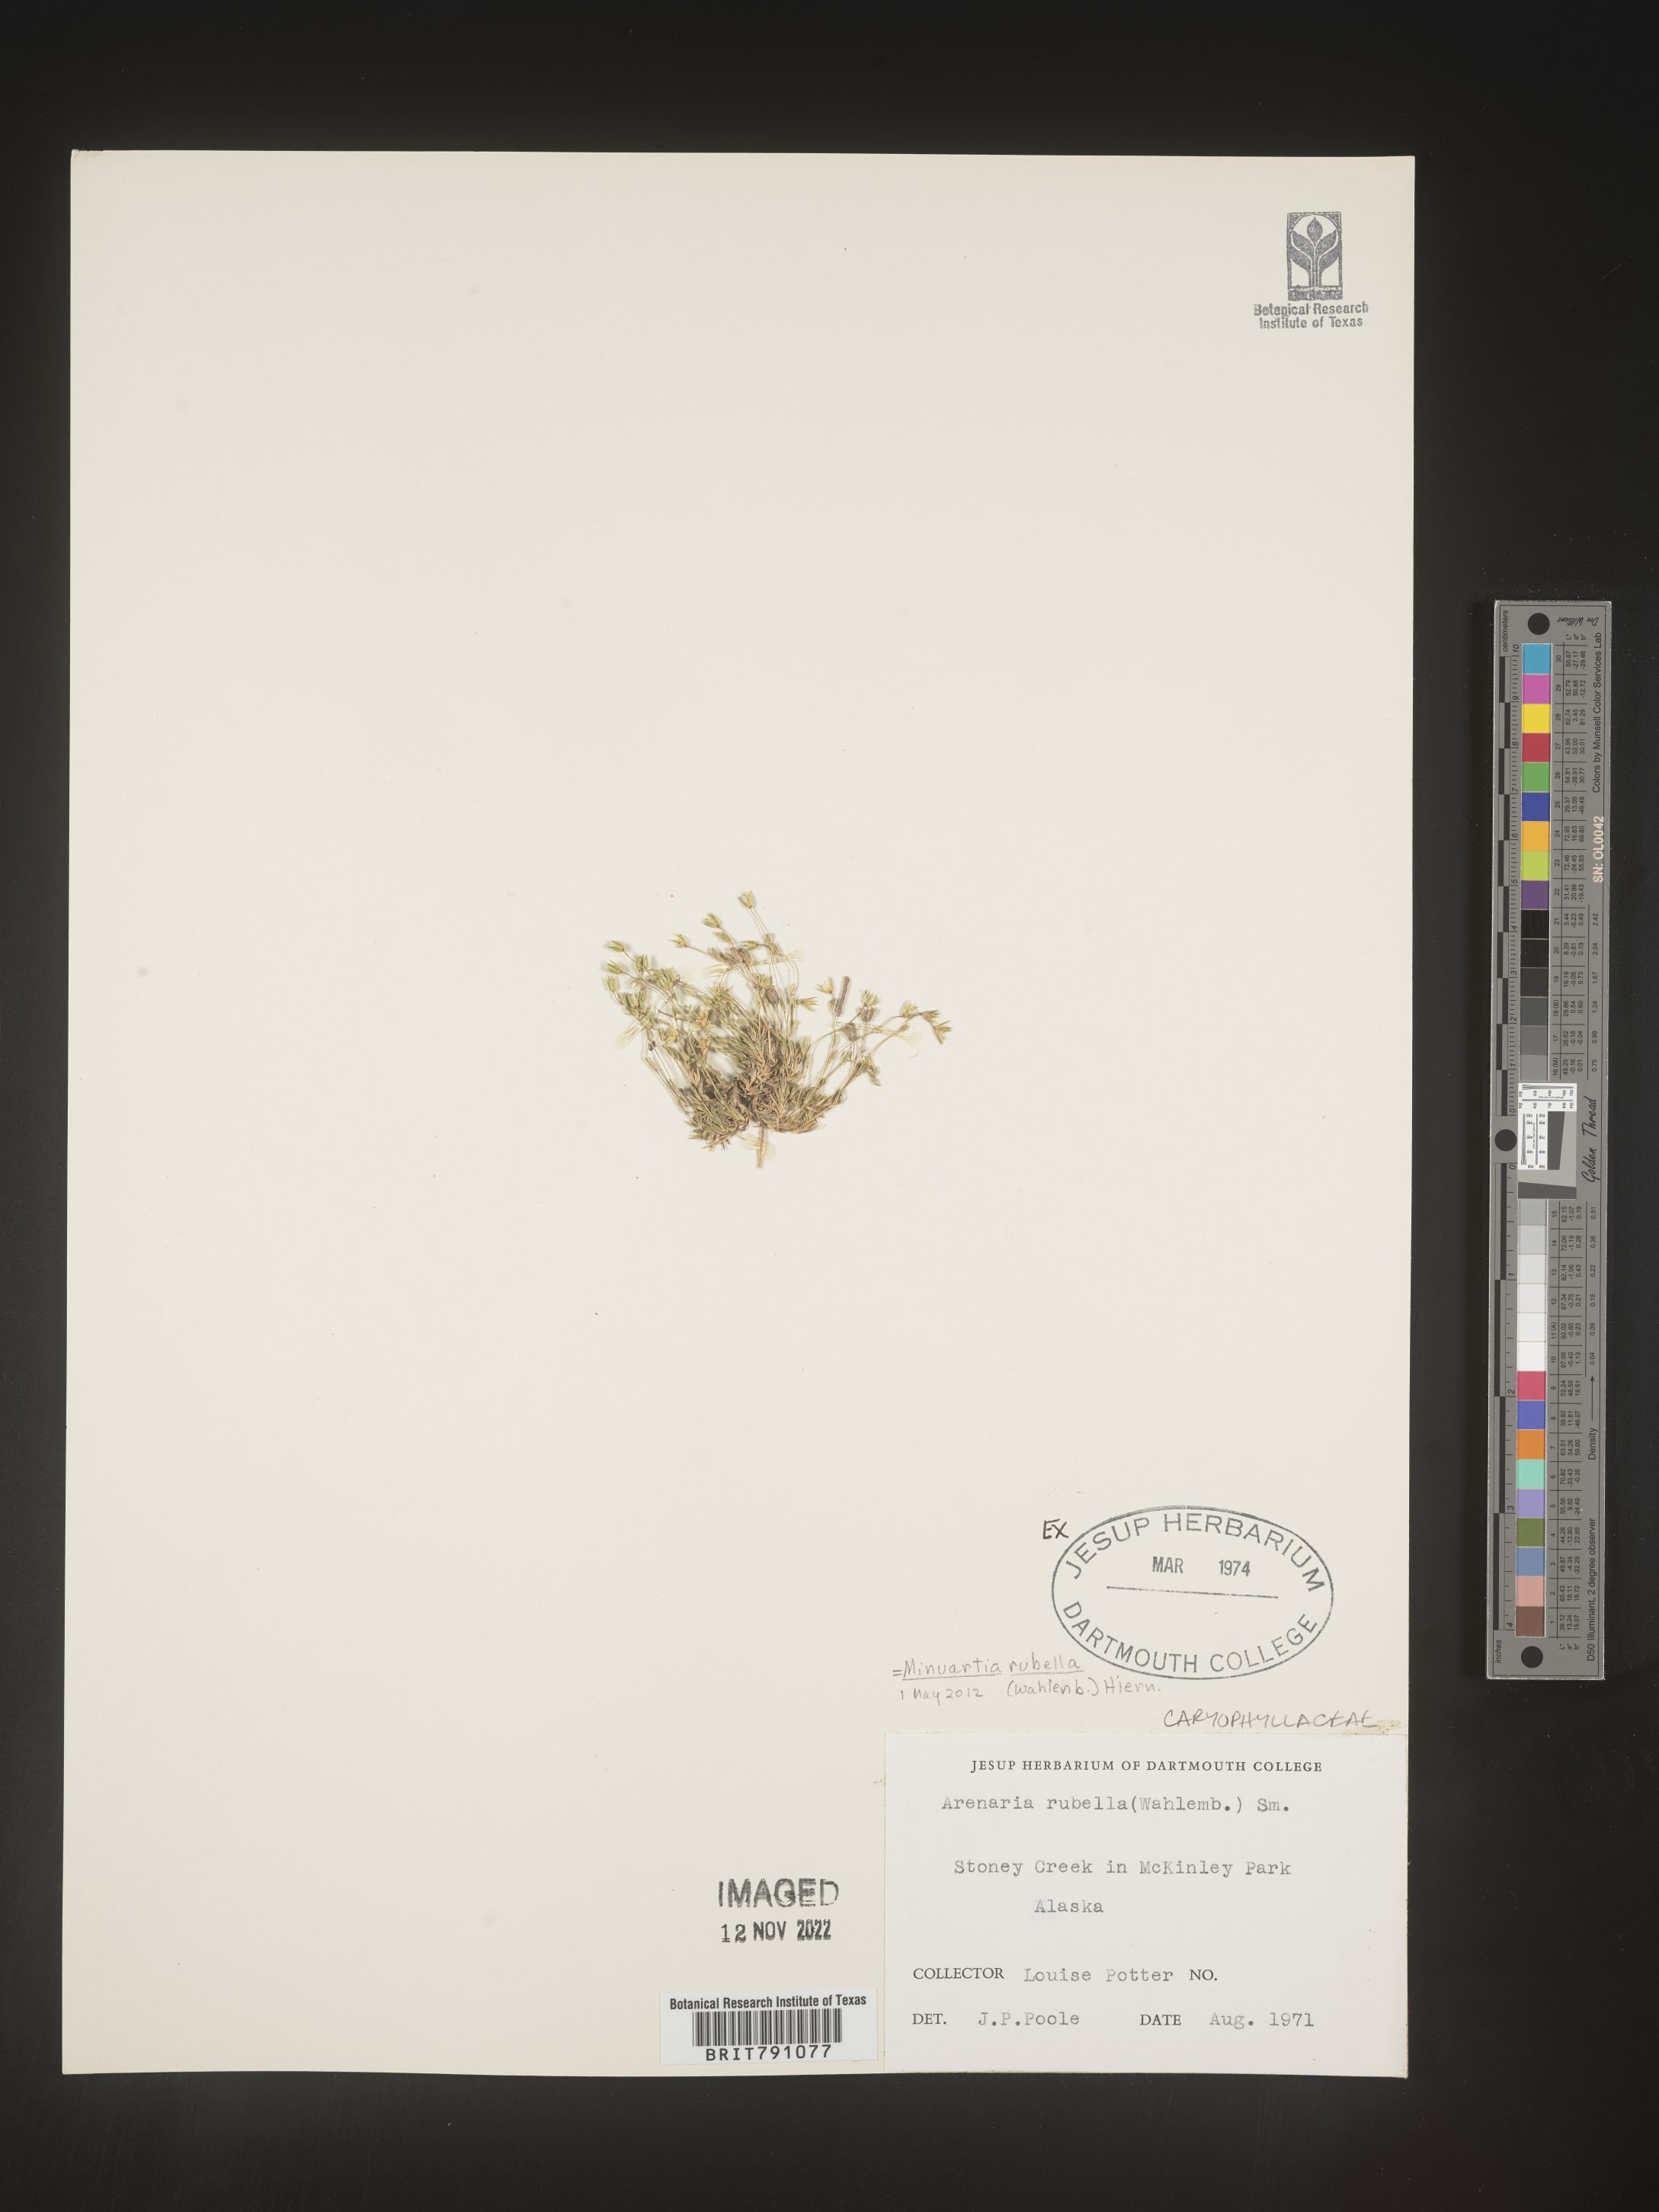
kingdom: Plantae
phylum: Tracheophyta
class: Magnoliopsida
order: Caryophyllales
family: Caryophyllaceae
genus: Minuartia
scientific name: Minuartia
